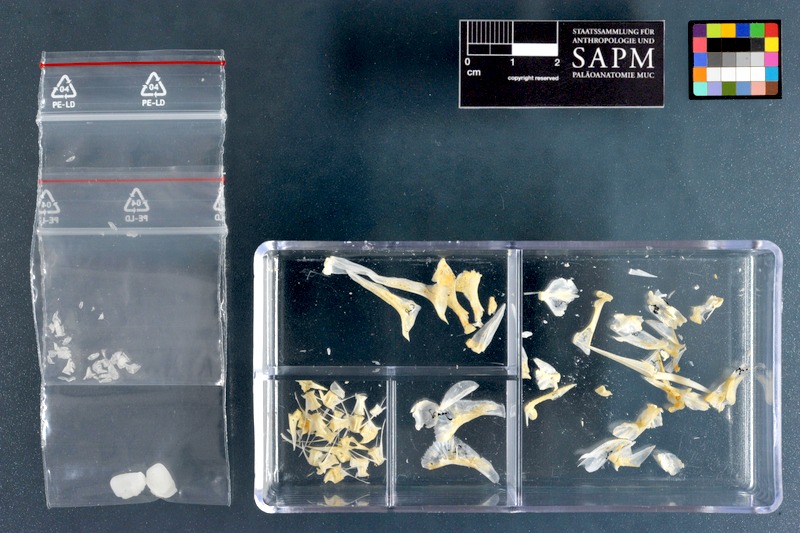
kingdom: Animalia
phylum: Chordata
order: Perciformes
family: Sciaenidae
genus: Pseudotolithus
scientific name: Pseudotolithus elongatus
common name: Bobo croaker
